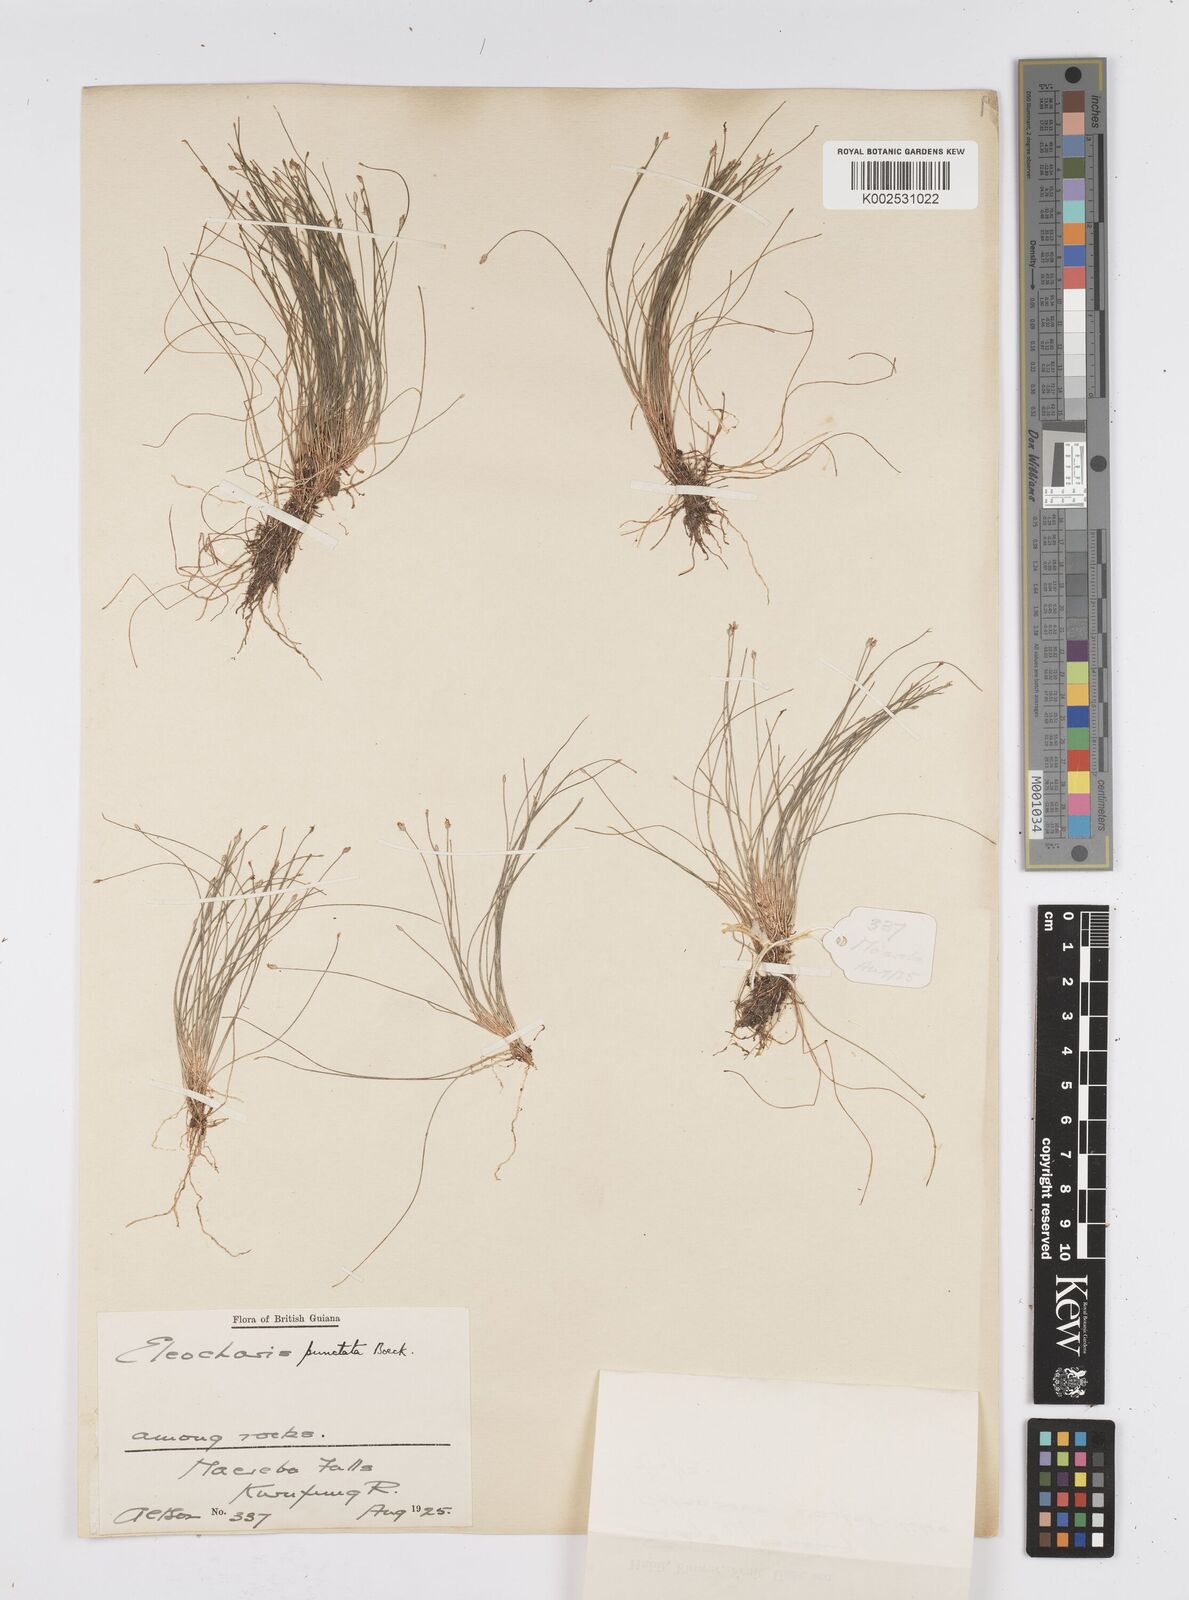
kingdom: Plantae
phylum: Tracheophyta
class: Liliopsida
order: Poales
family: Cyperaceae
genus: Eleocharis
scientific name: Eleocharis nana
